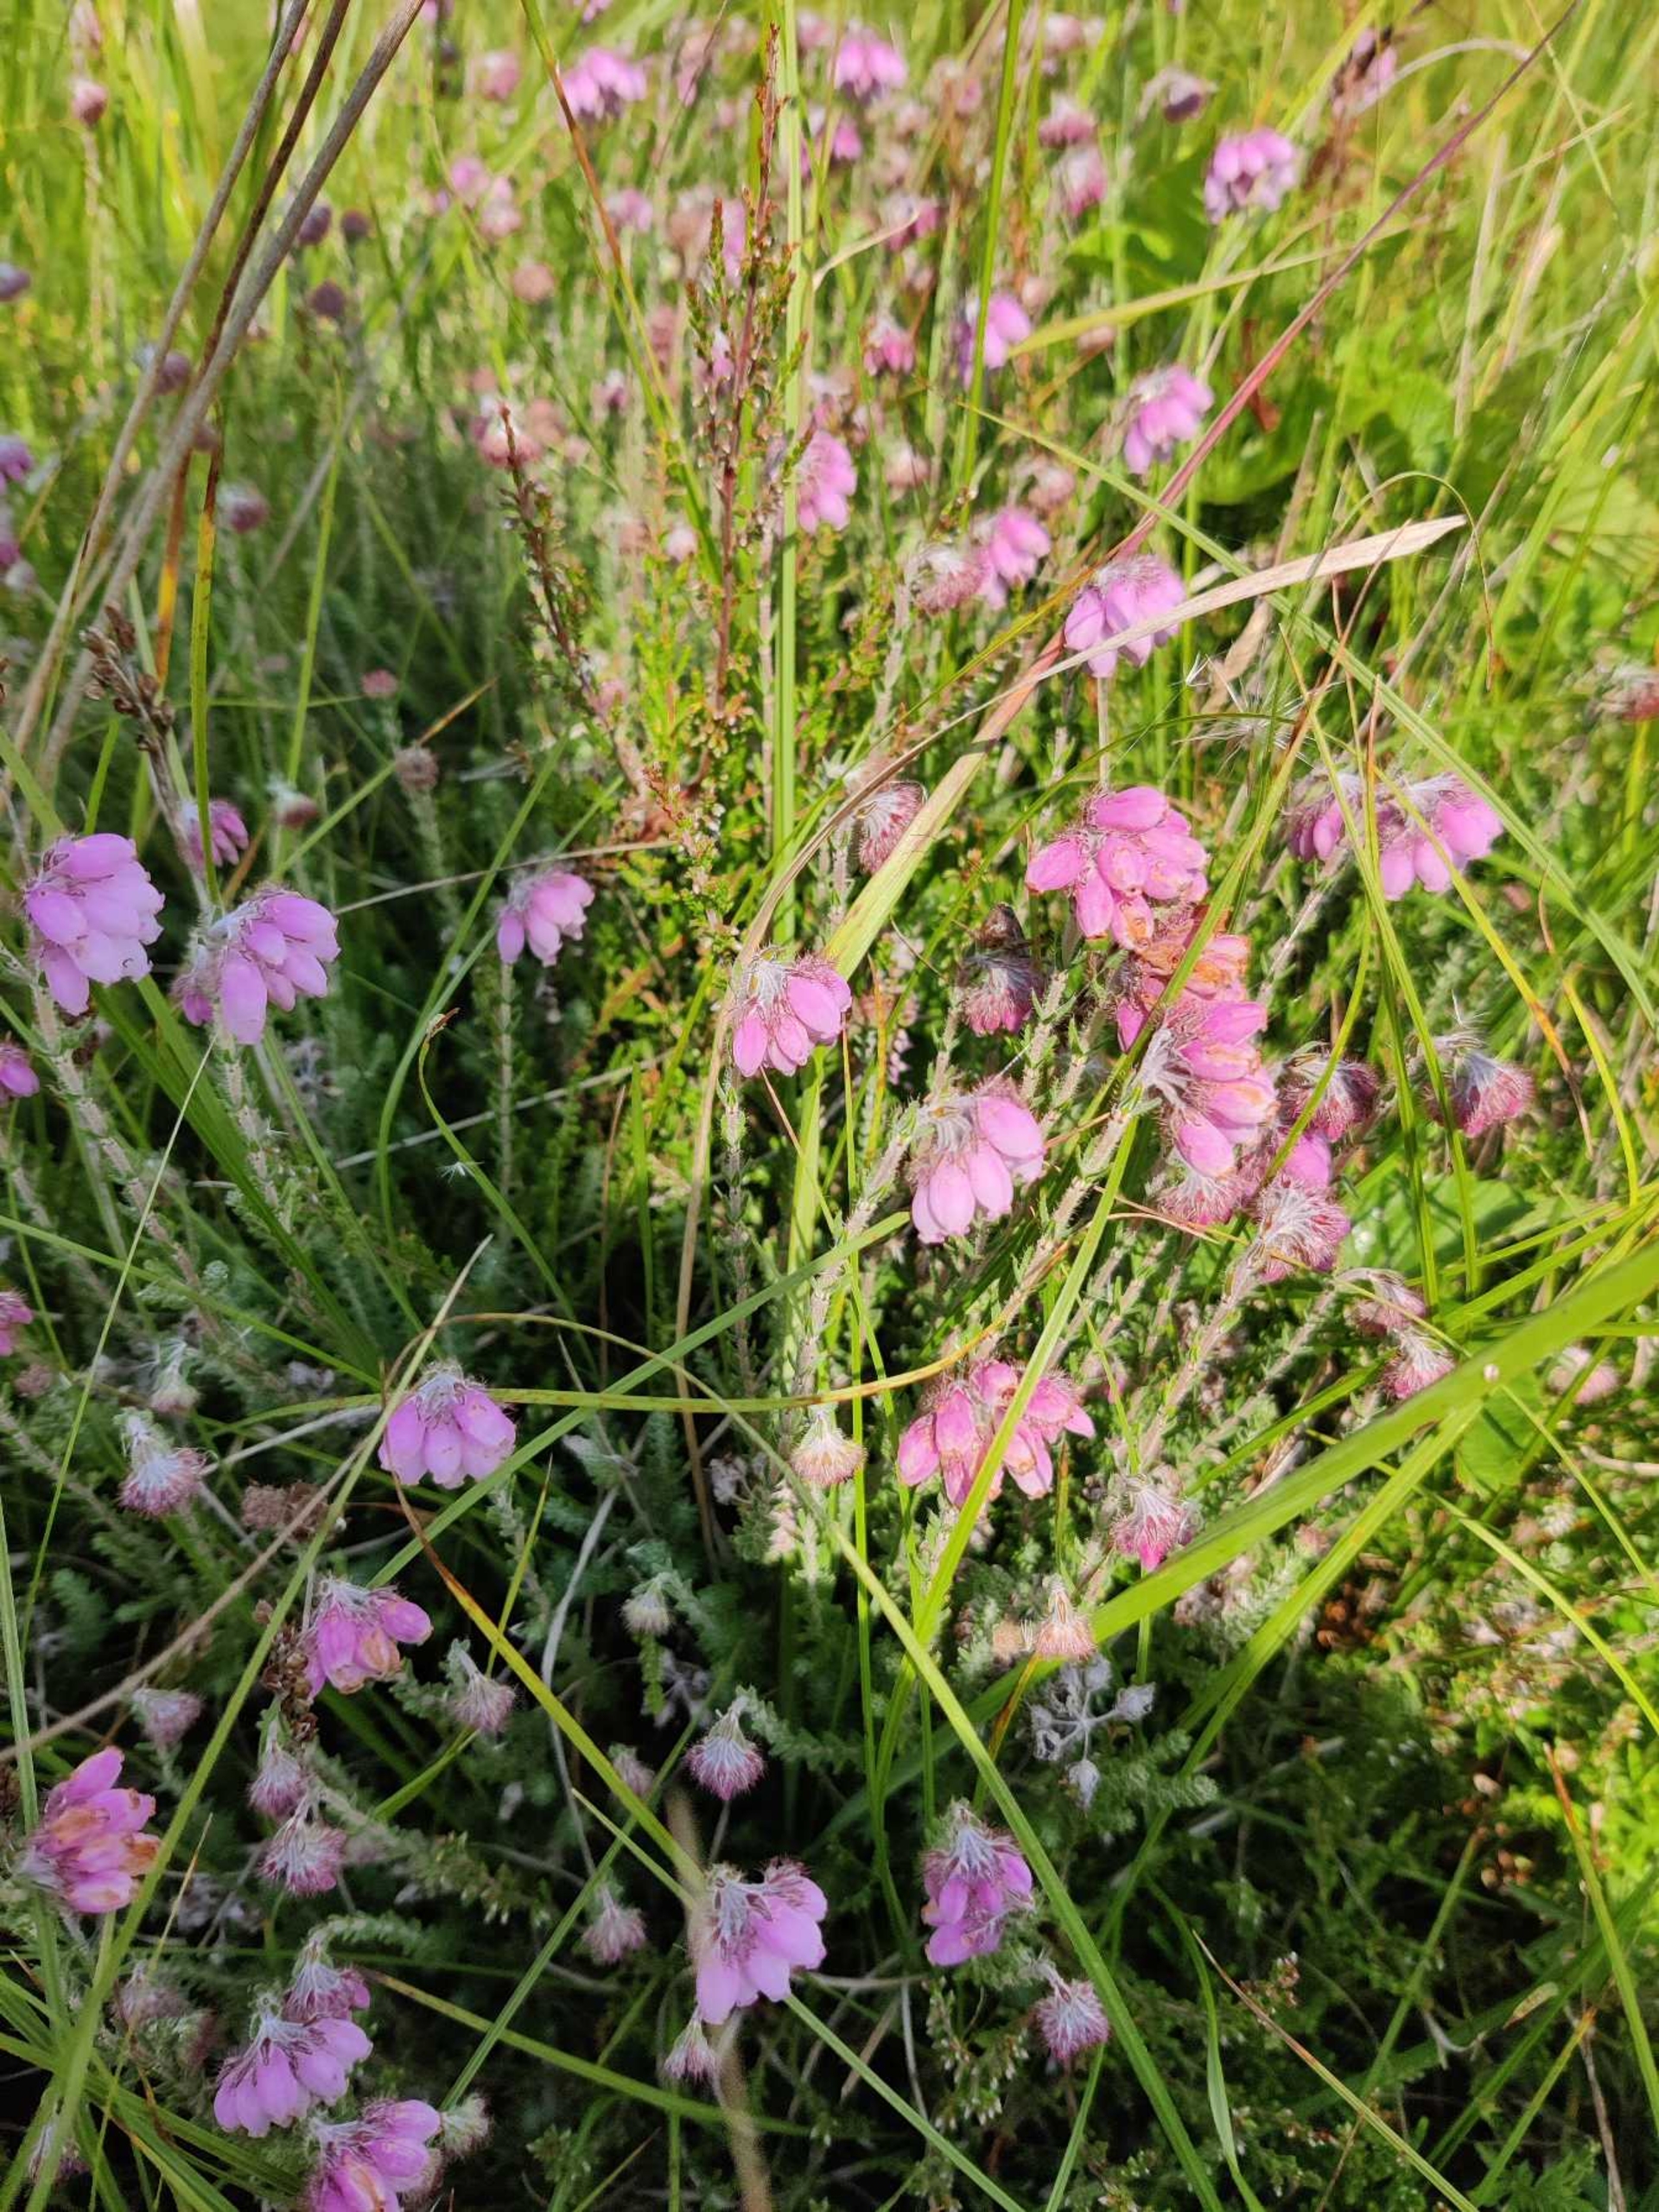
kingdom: Plantae
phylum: Tracheophyta
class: Magnoliopsida
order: Ericales
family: Ericaceae
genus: Erica
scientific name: Erica tetralix
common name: Klokkelyng
